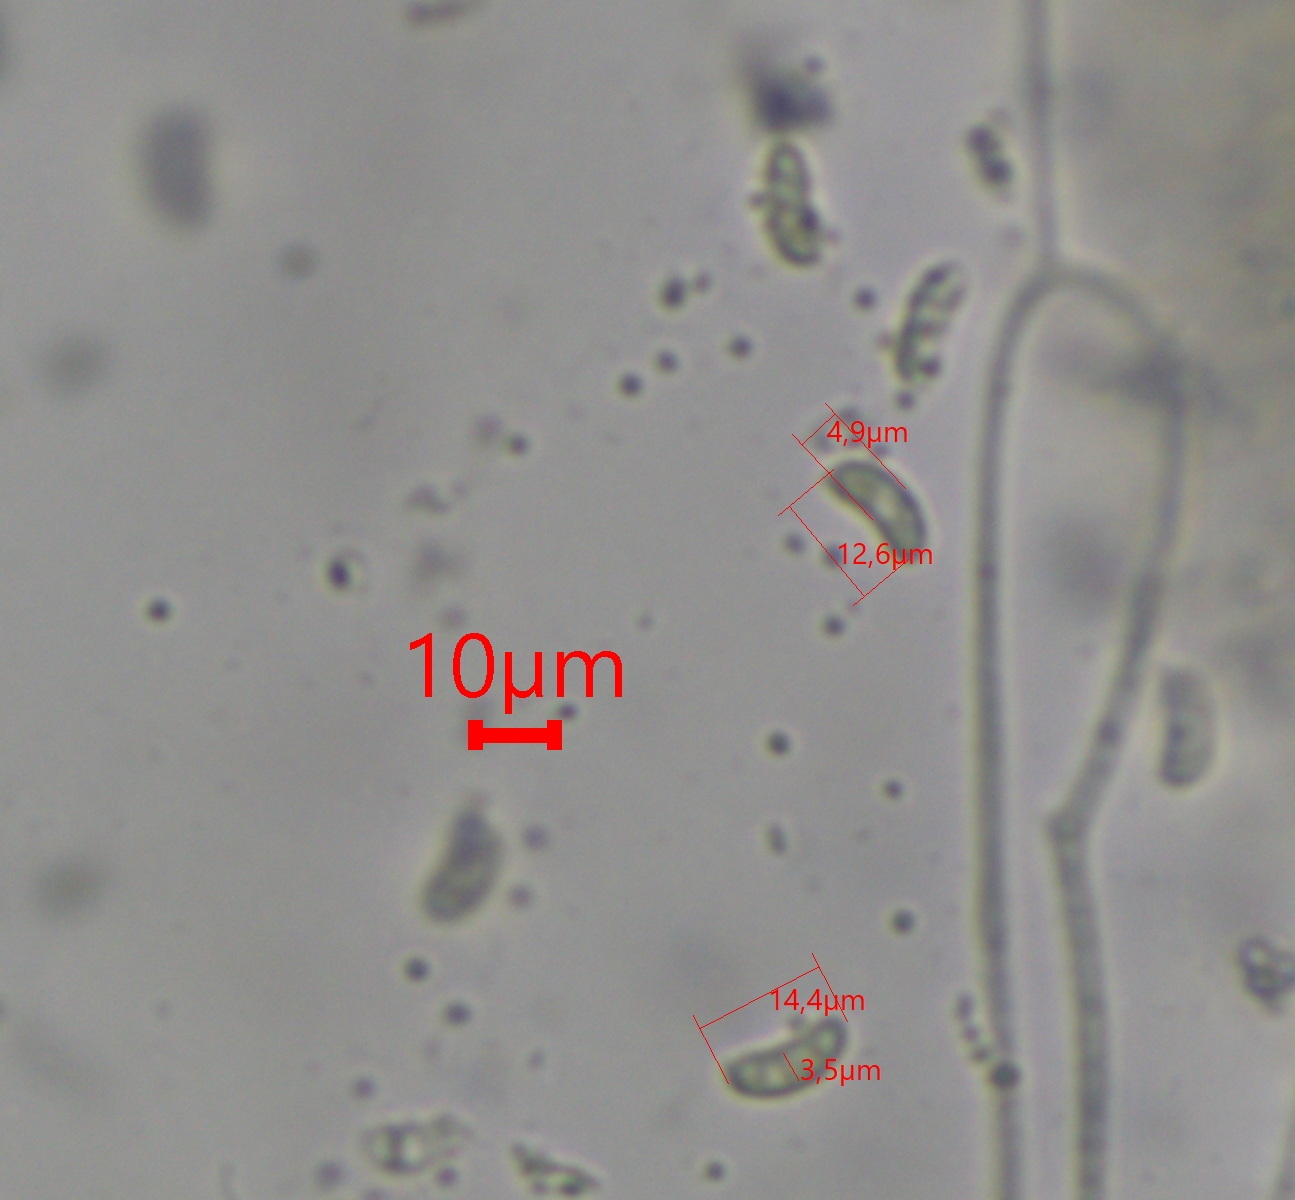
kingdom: Fungi
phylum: Basidiomycota
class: Dacrymycetes
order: Dacrymycetales
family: Dacrymycetaceae
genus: Dacrymyces
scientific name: Dacrymyces lacrymalis
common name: rynket tåresvamp
